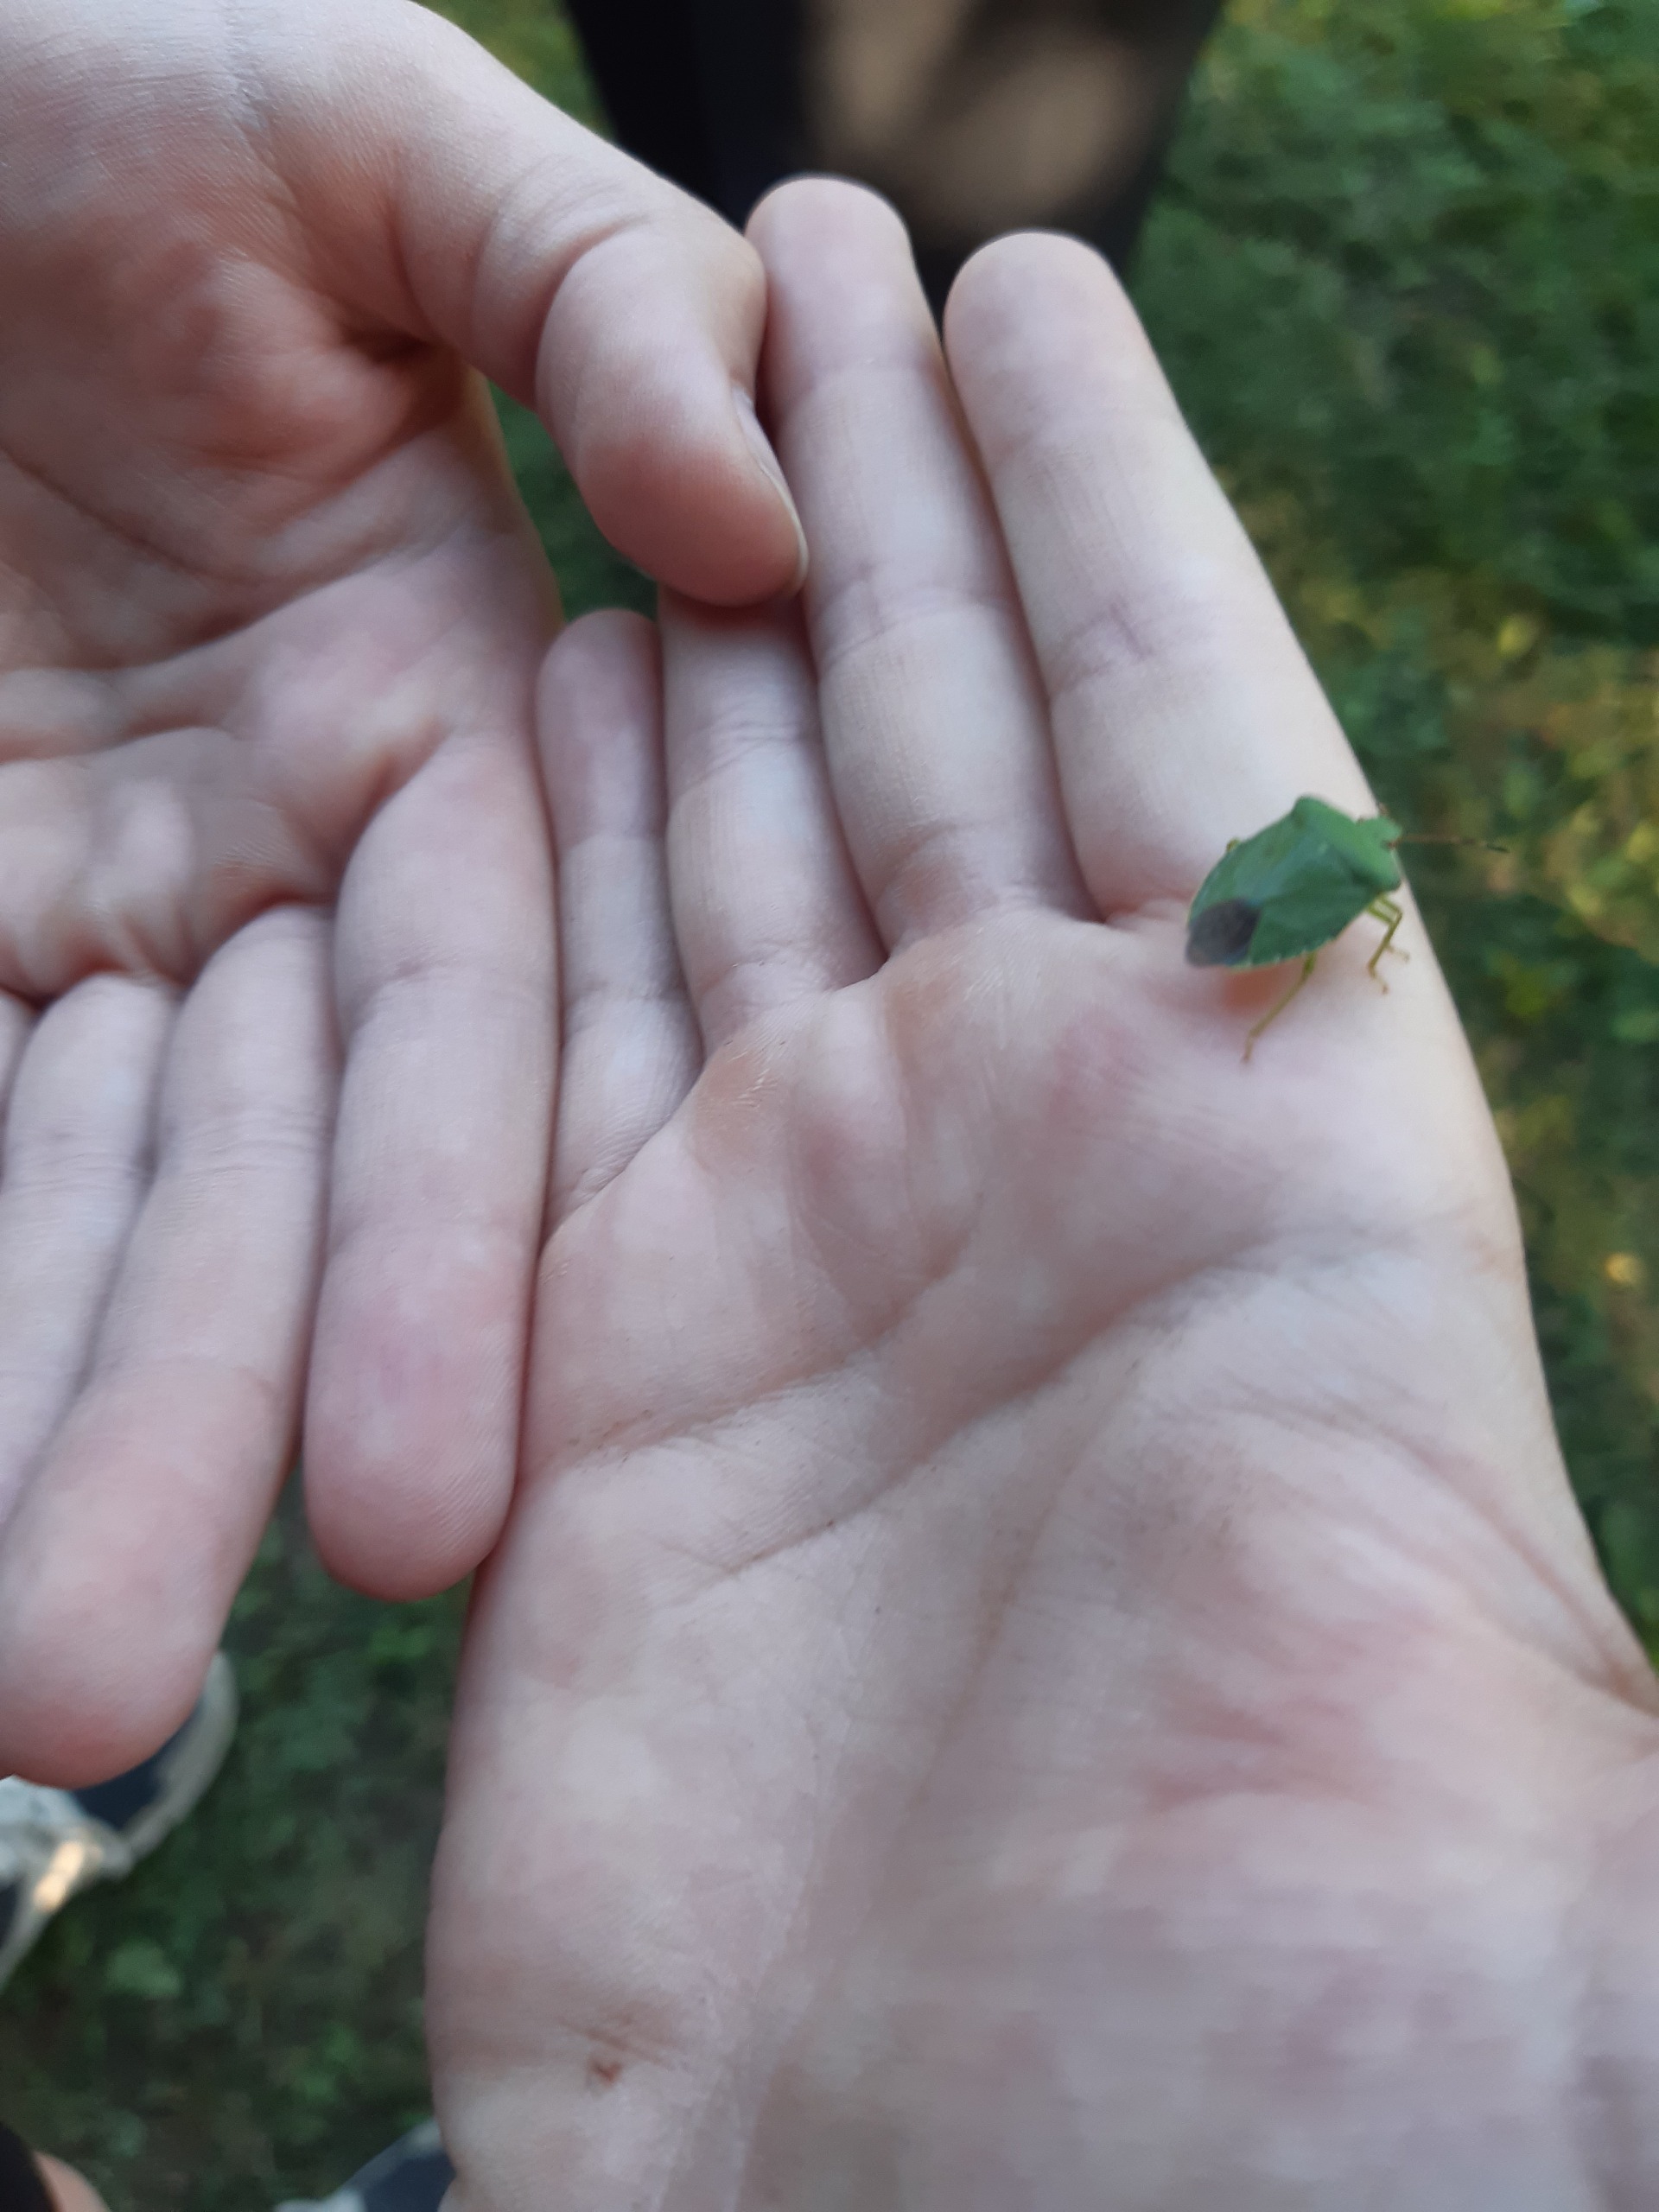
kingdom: Animalia
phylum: Arthropoda
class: Insecta
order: Hemiptera
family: Pentatomidae
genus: Palomena
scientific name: Palomena prasina
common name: Grøn bredtæge
